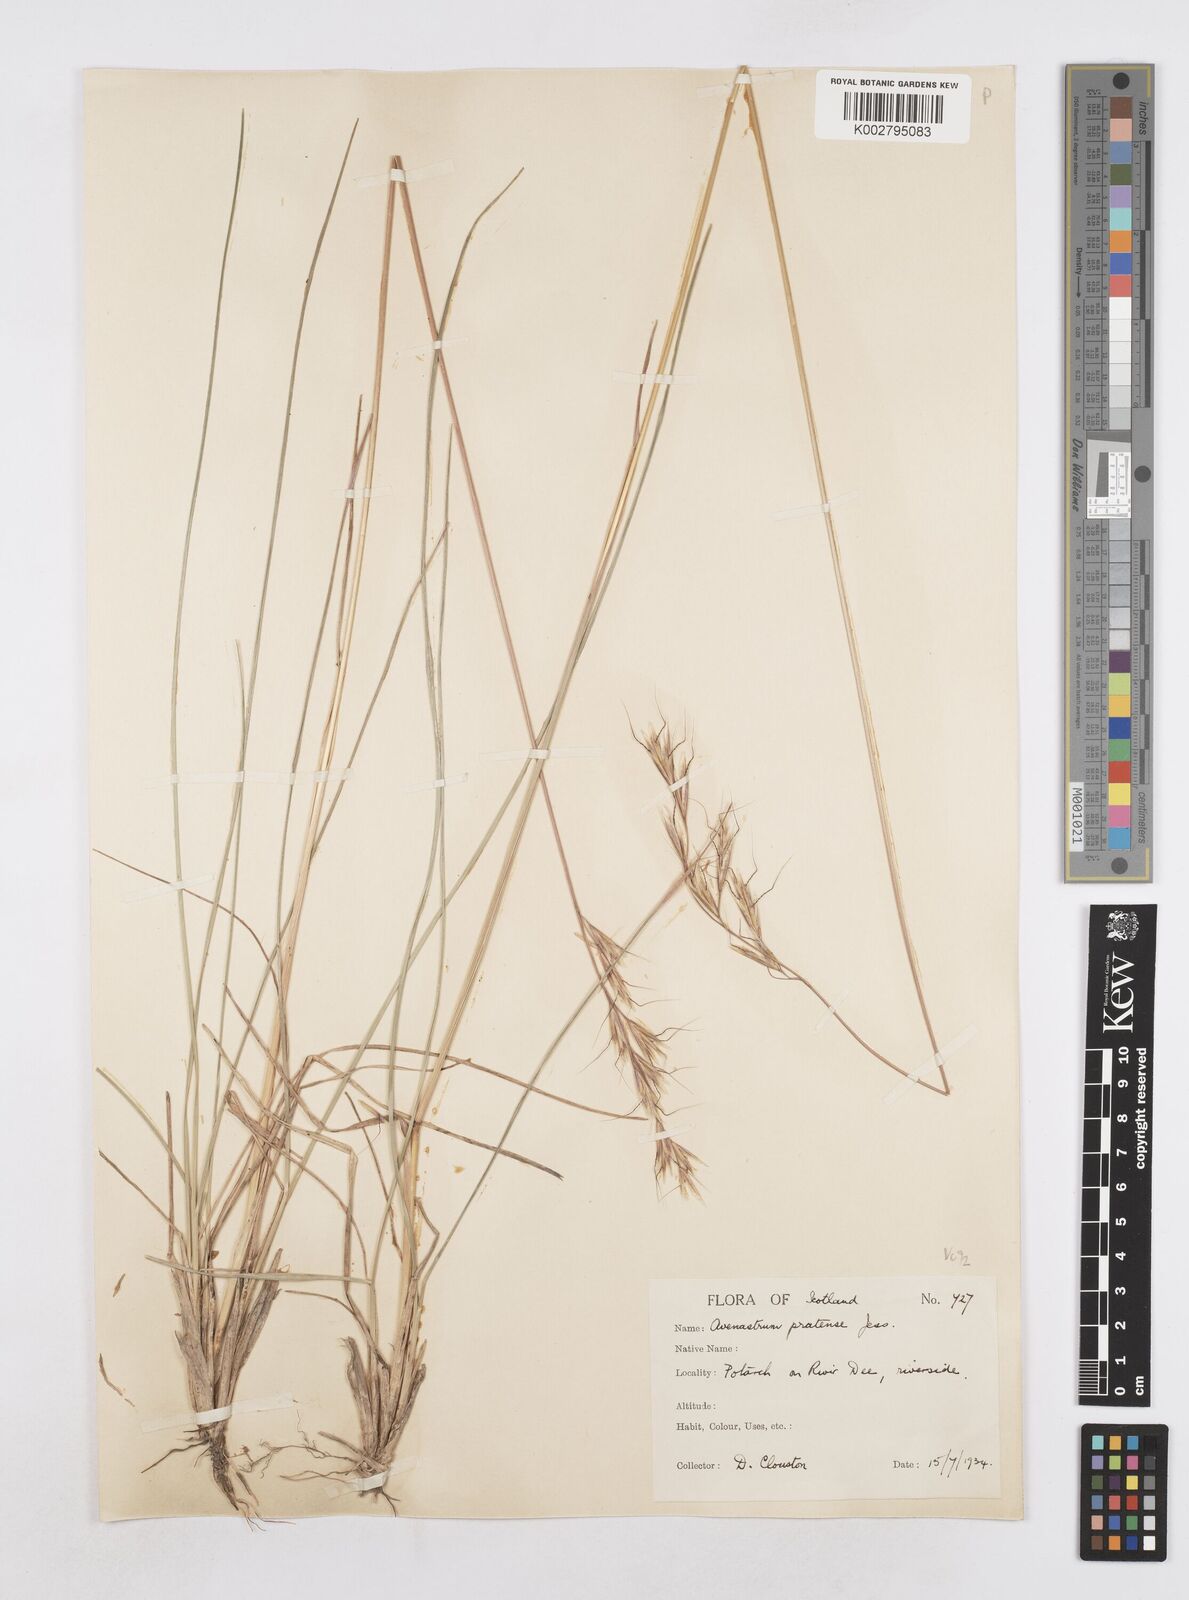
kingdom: Plantae
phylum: Tracheophyta
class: Liliopsida
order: Poales
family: Poaceae
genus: Helictochloa
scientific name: Helictochloa pratensis
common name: Meadow oat grass
